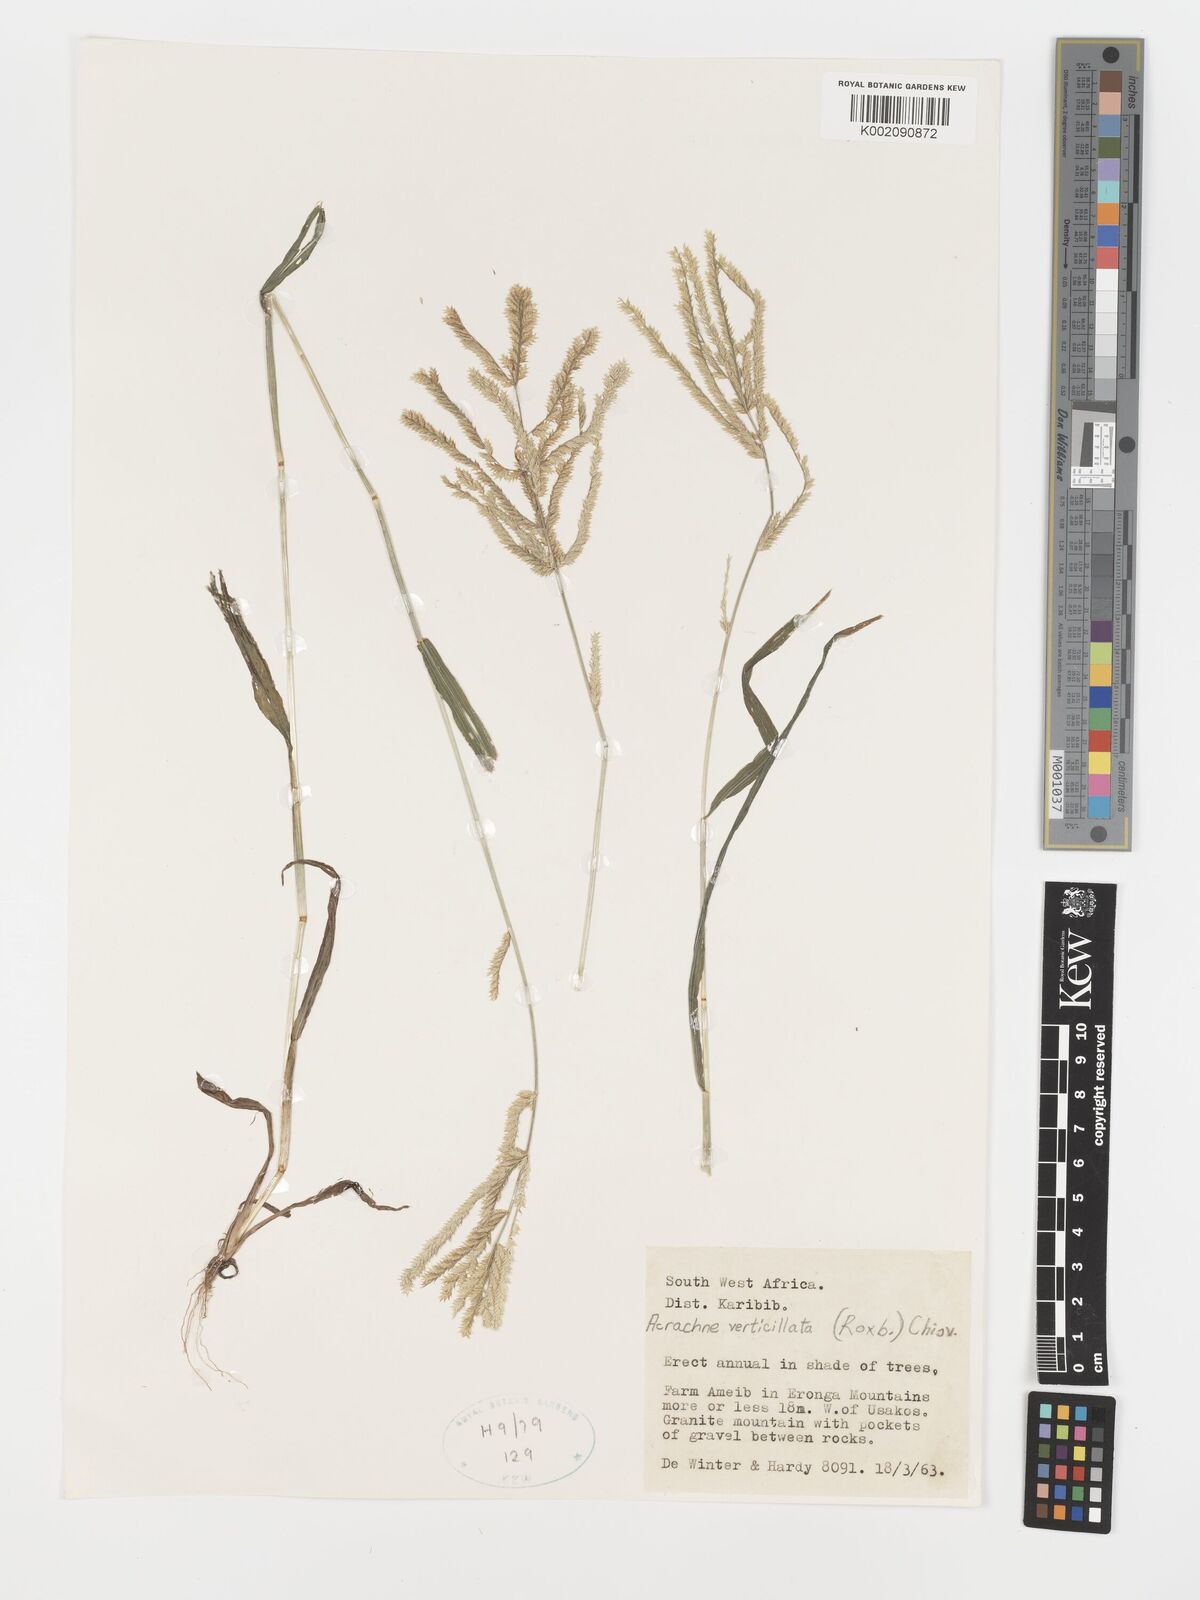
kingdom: Plantae
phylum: Tracheophyta
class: Liliopsida
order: Poales
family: Poaceae
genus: Acrachne
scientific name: Acrachne racemosa
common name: Goosegrass
